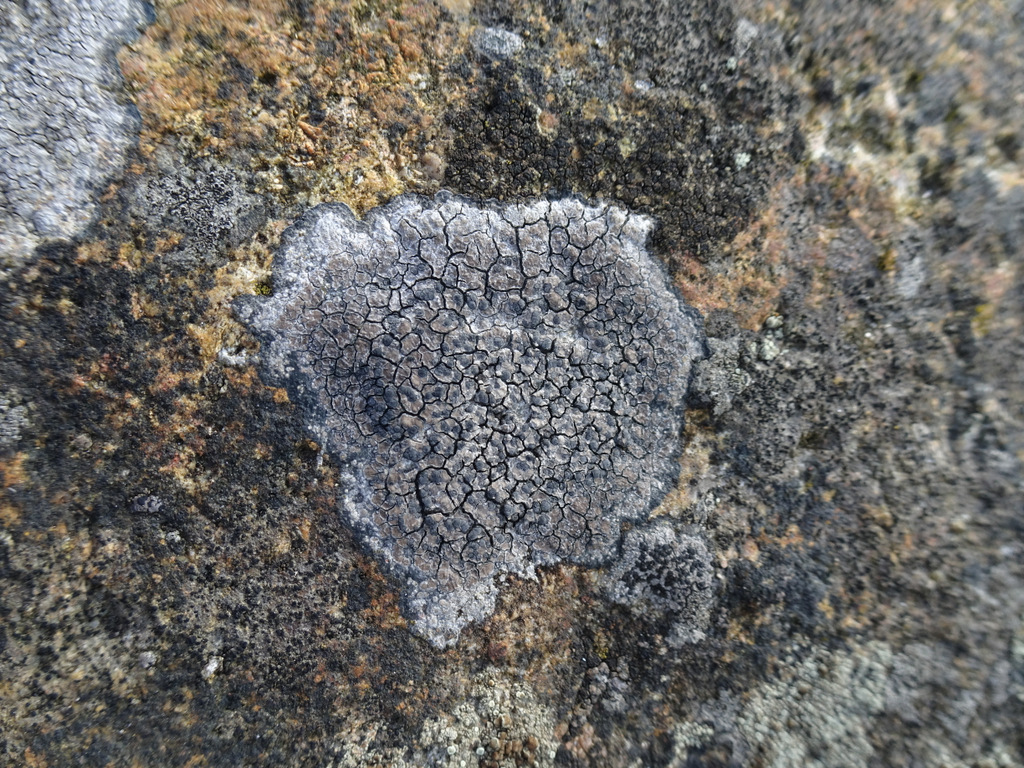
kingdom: Fungi
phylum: Ascomycota
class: Lecanoromycetes
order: Lecideales
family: Lecideaceae
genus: Lecidea
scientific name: Lecidea fuscoatra
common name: rudret skivelav
